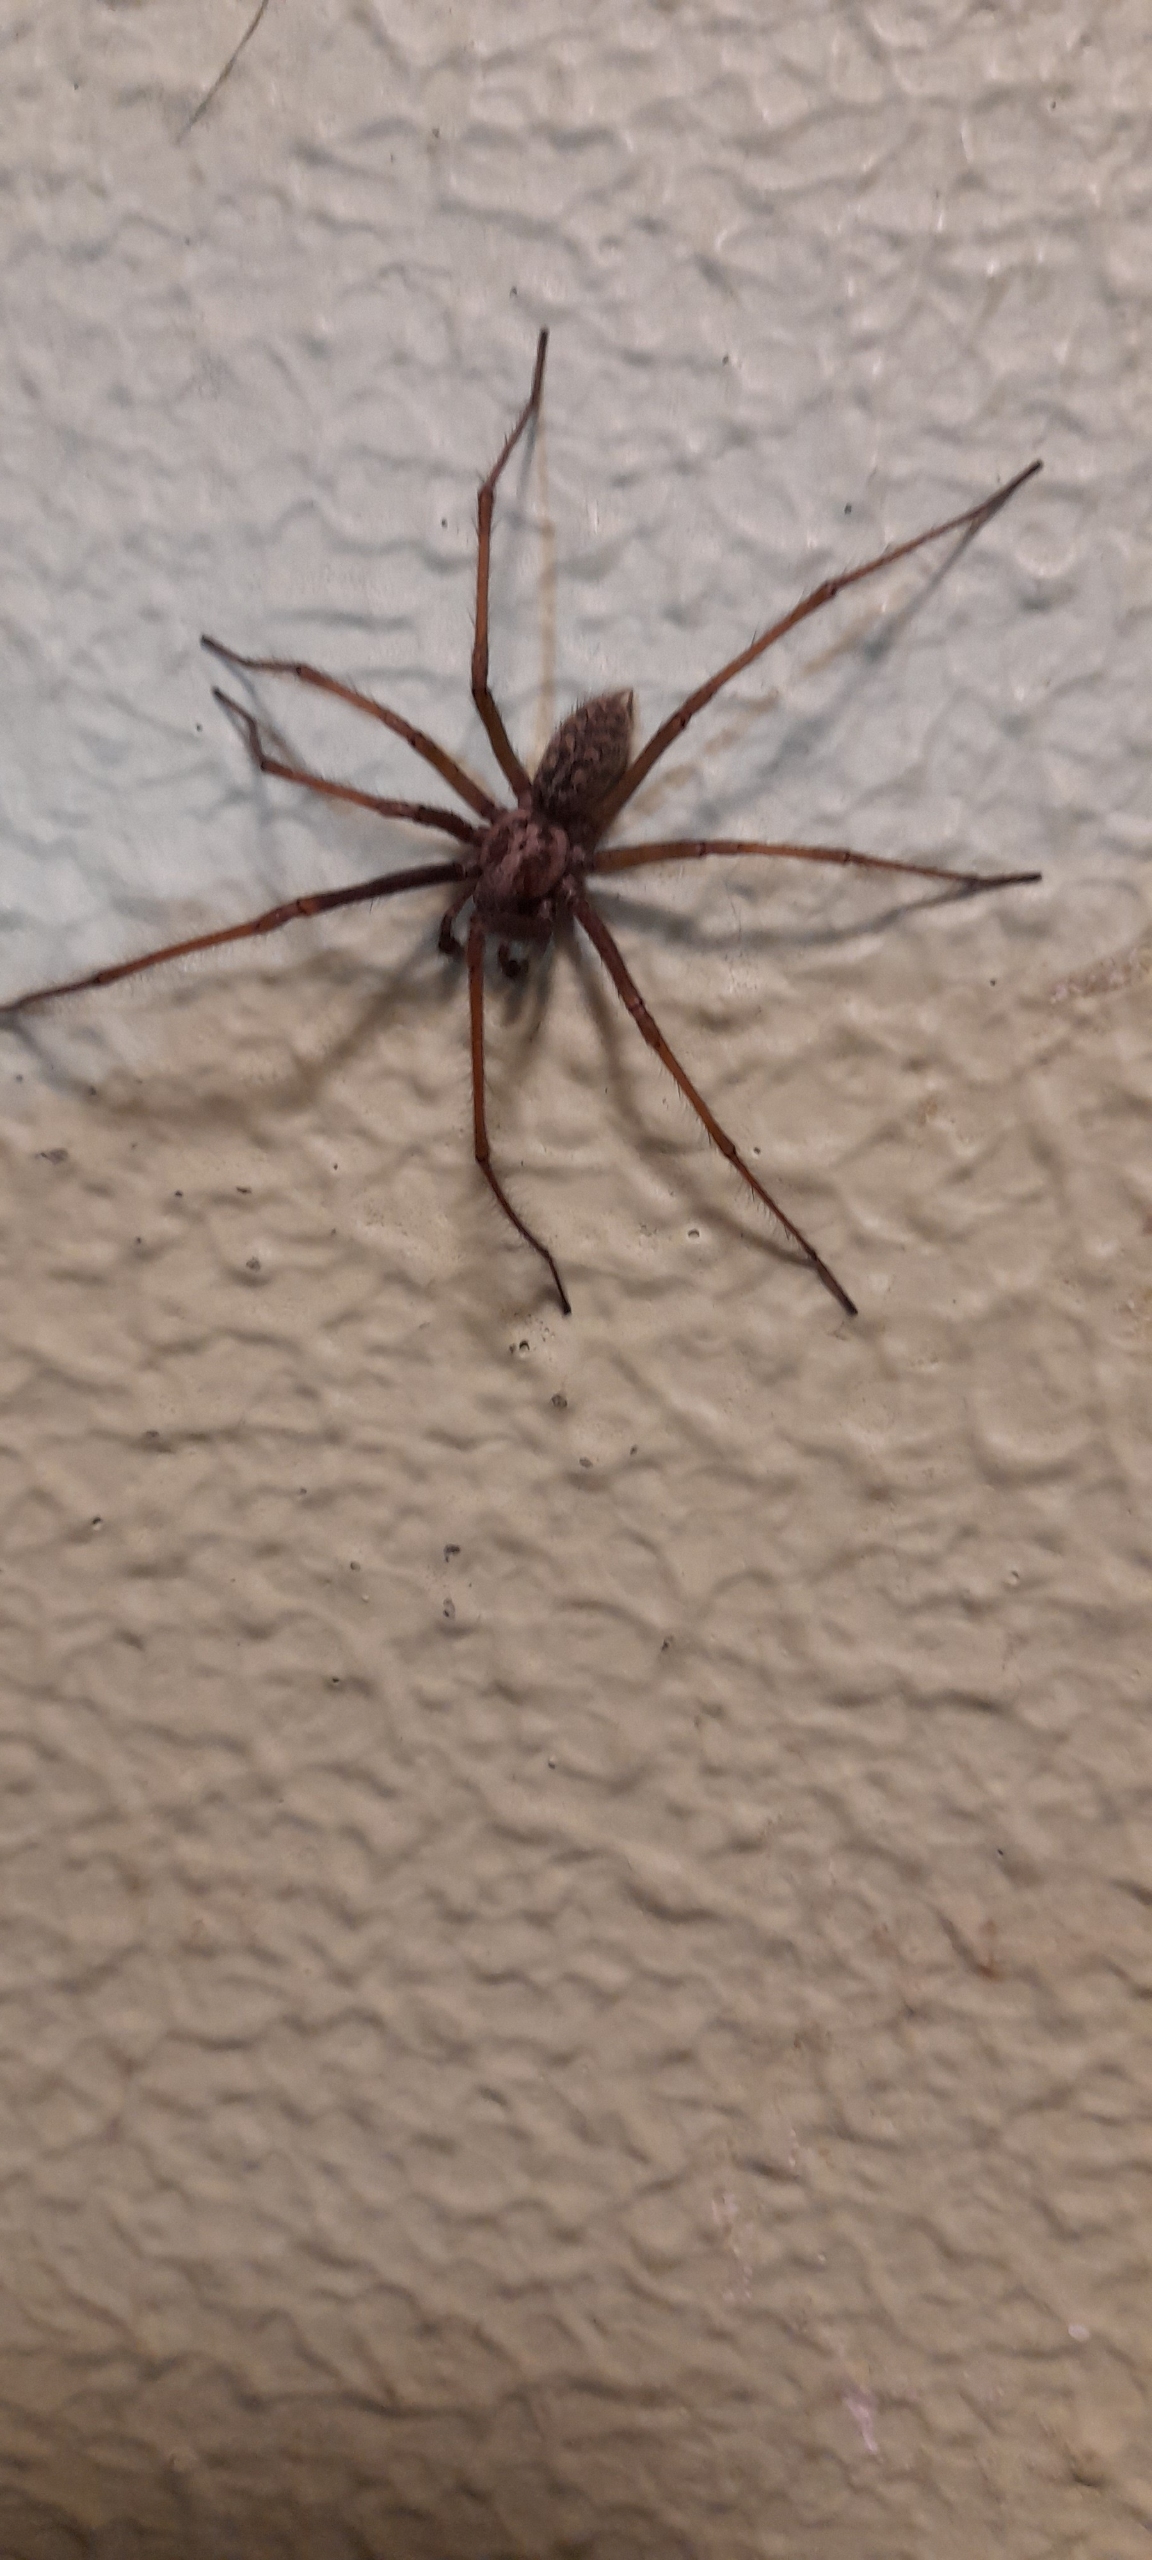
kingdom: Animalia
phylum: Arthropoda
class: Arachnida
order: Araneae
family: Agelenidae
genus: Eratigena
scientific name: Eratigena atrica
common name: Stor husedderkop
